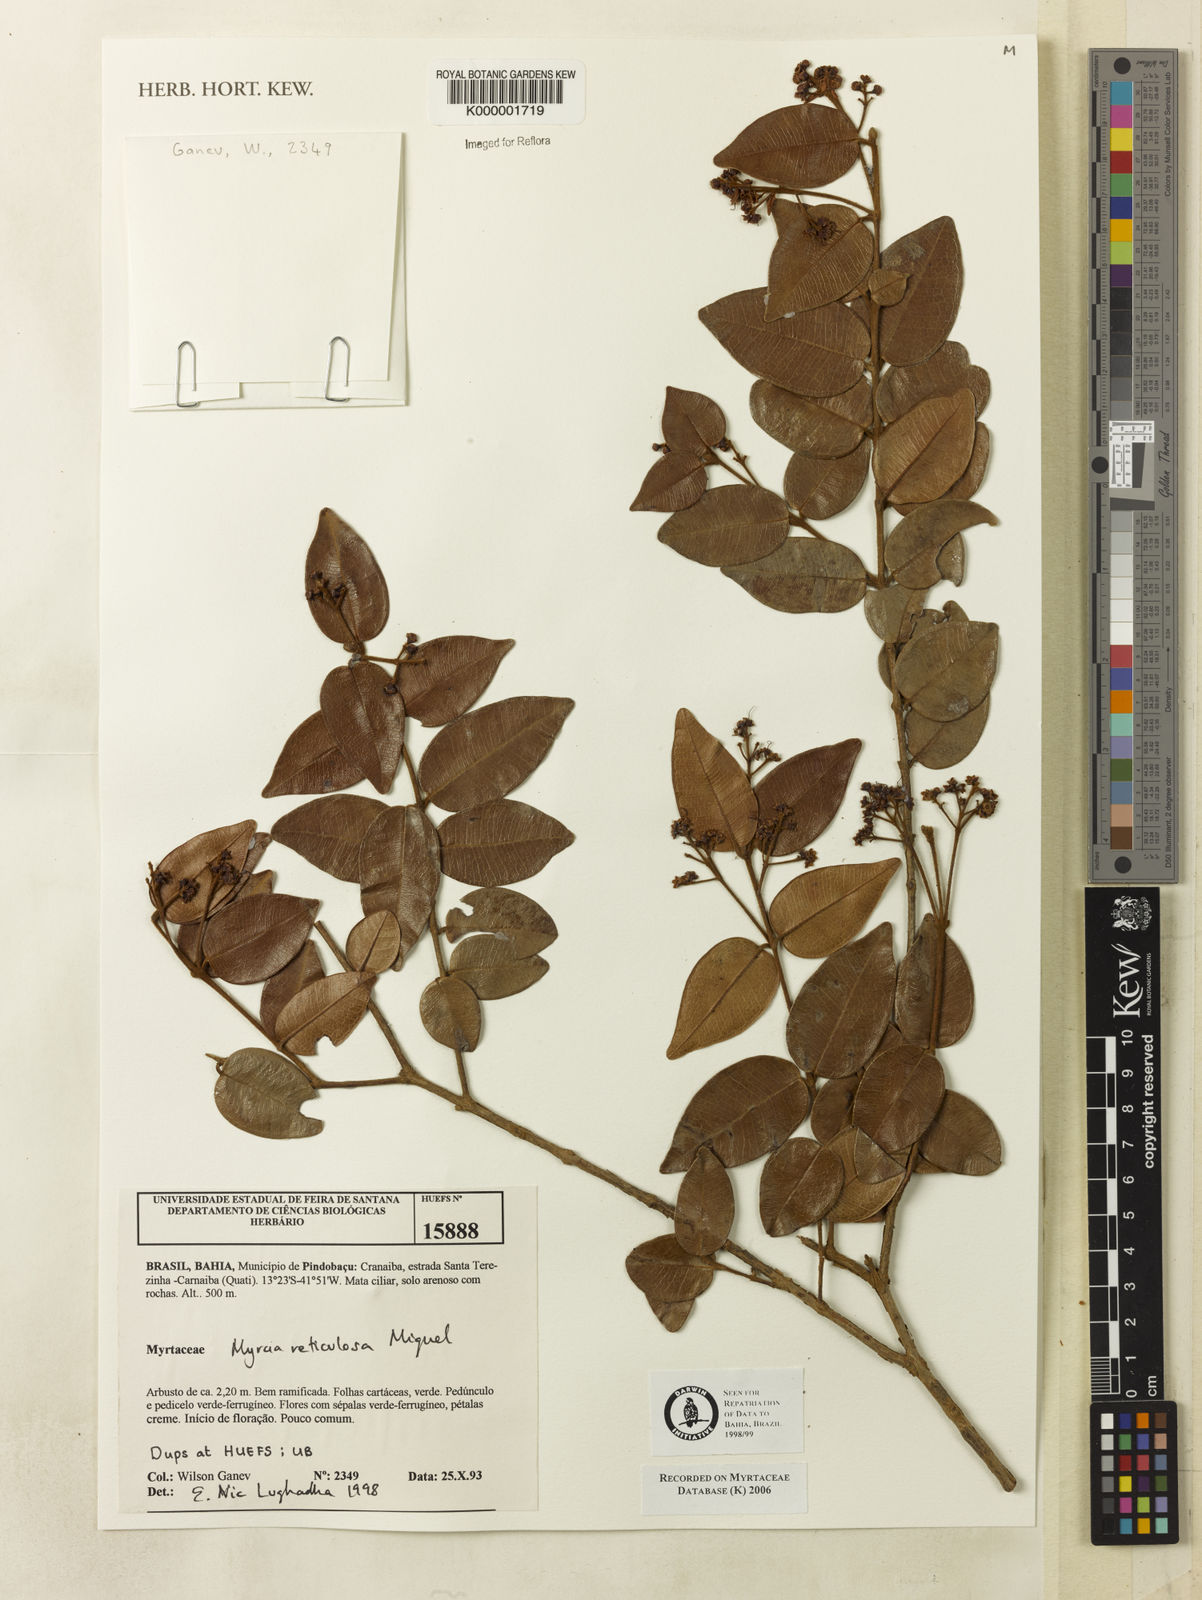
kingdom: Plantae
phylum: Tracheophyta
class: Magnoliopsida
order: Myrtales
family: Myrtaceae
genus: Myrcia
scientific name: Myrcia reticulosa
